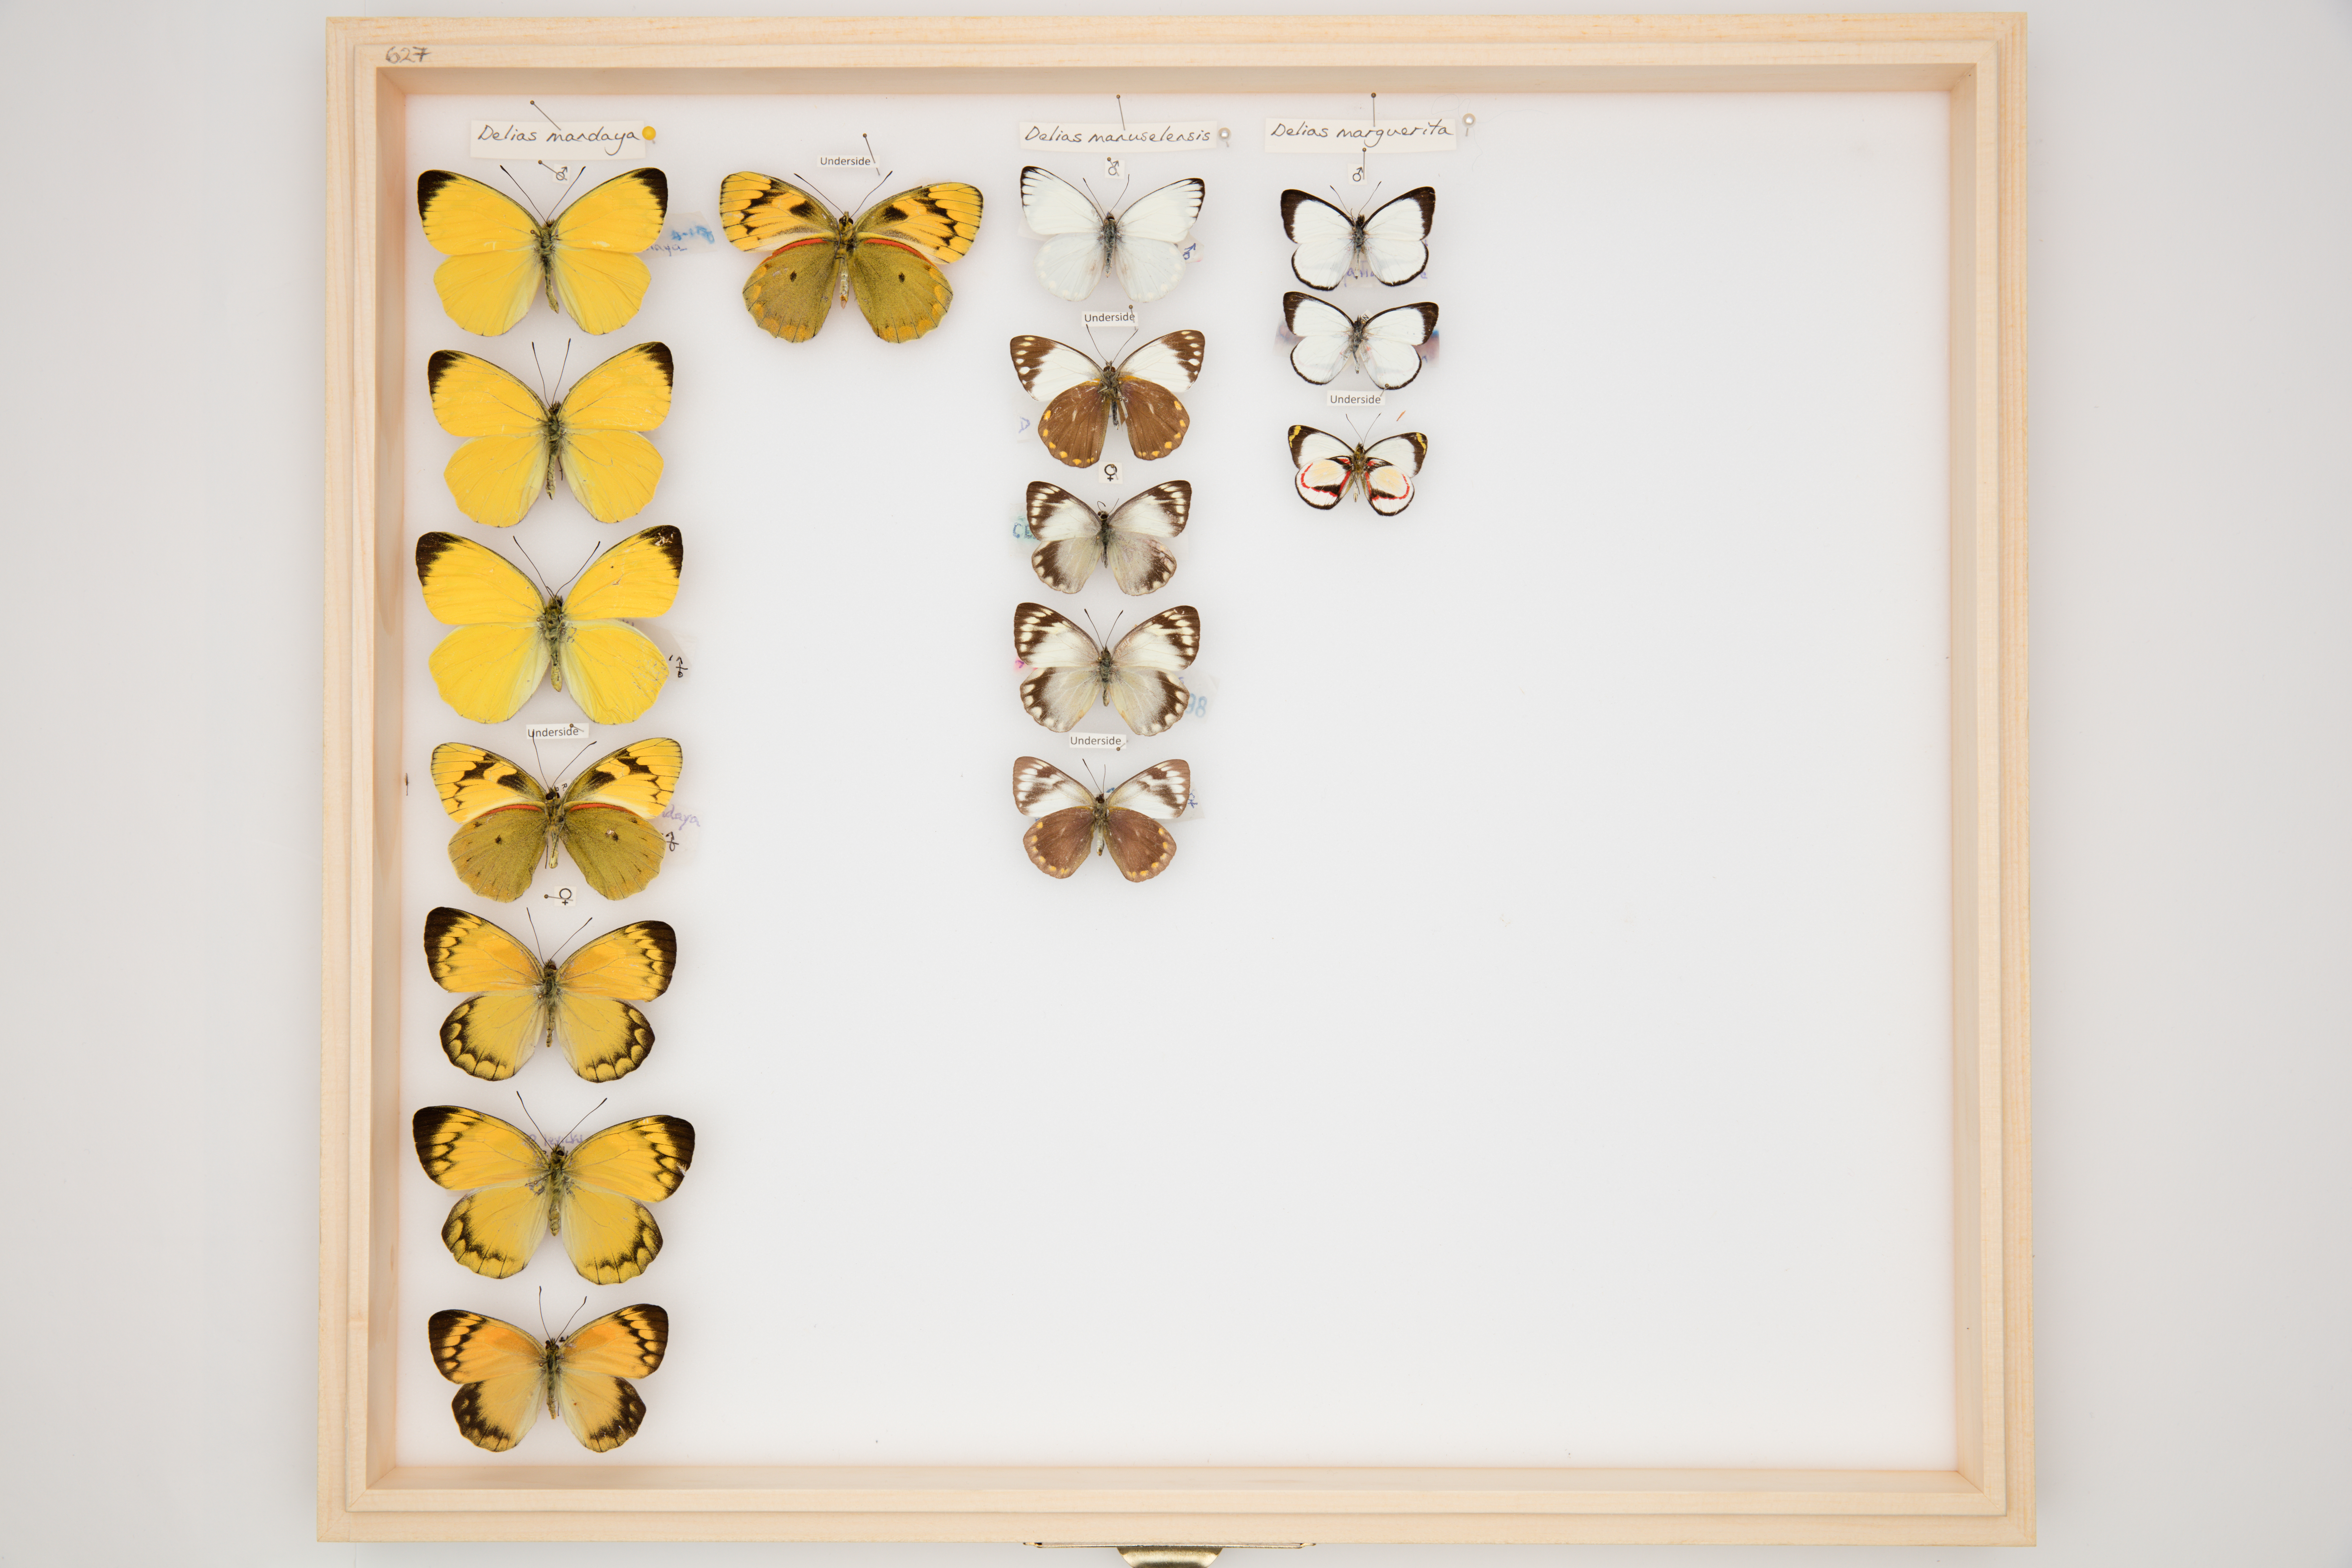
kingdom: Animalia
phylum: Arthropoda
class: Insecta
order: Lepidoptera
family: Pieridae
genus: Delias
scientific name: Delias marguerita
